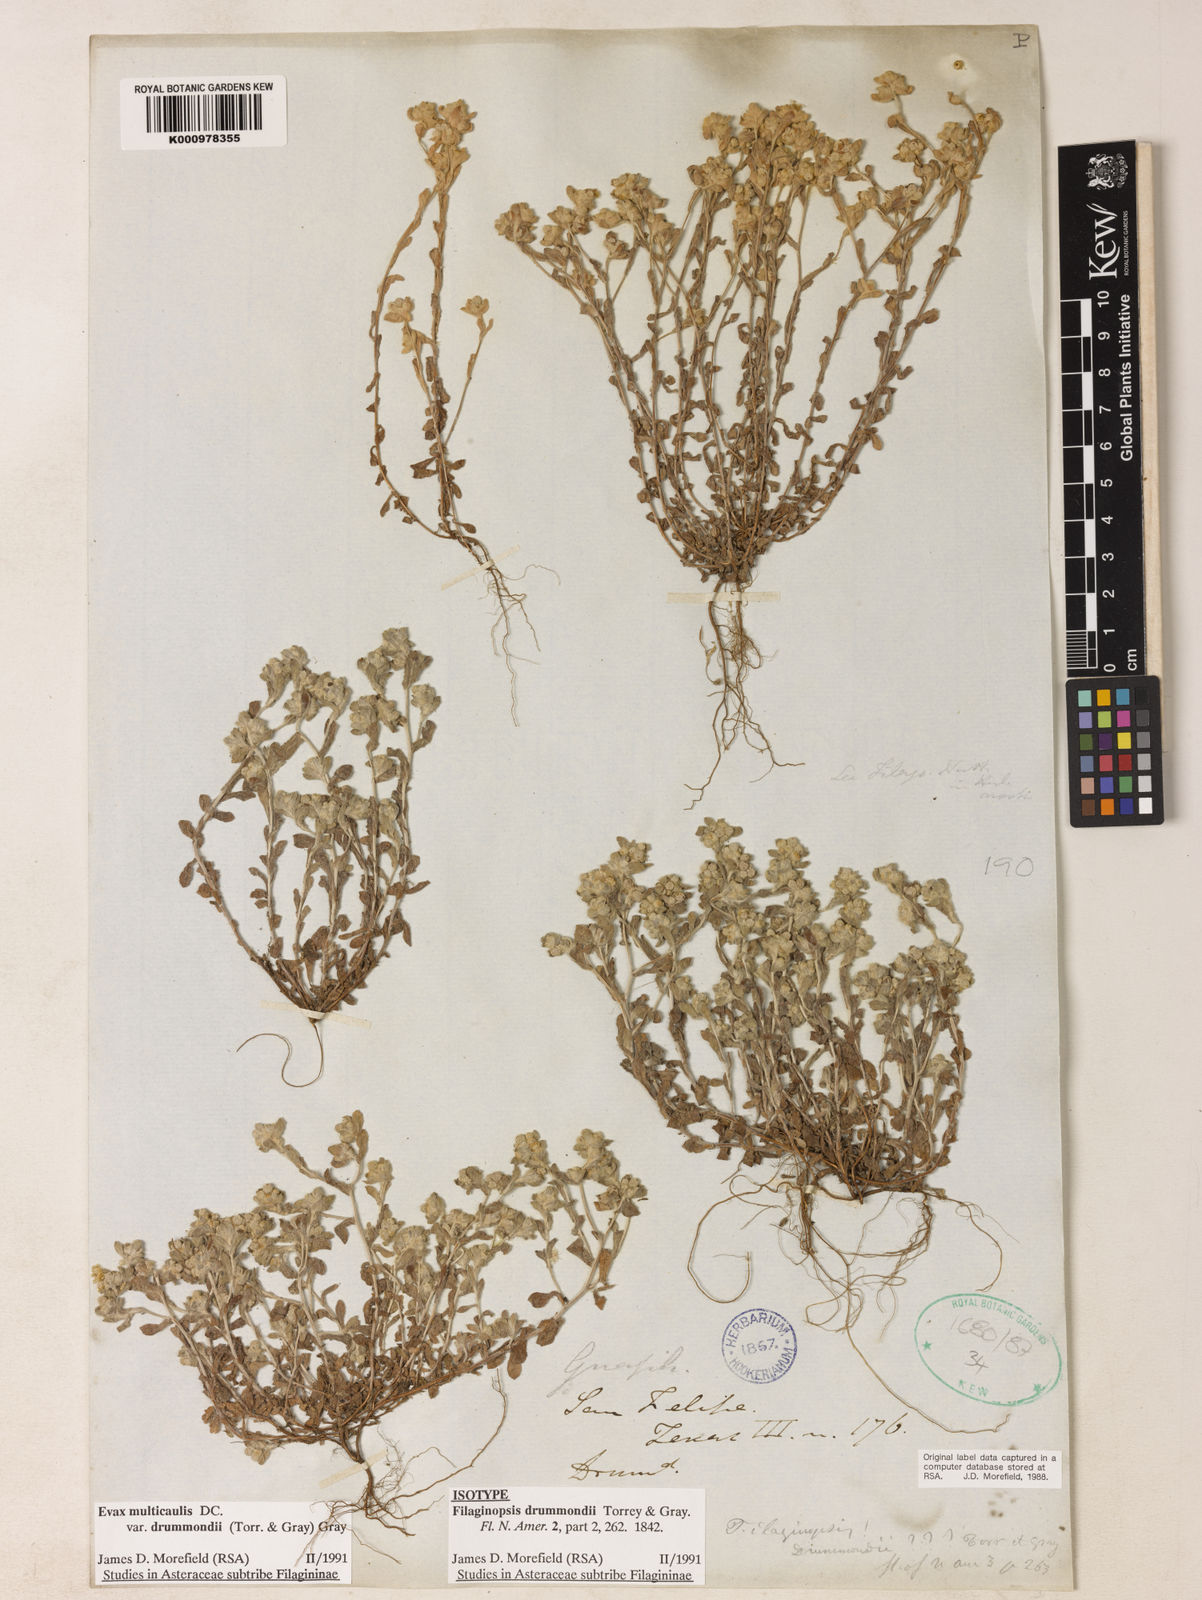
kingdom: Plantae
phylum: Tracheophyta
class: Magnoliopsida
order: Asterales
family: Asteraceae
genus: Diaperia
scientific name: Diaperia verna
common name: Many-stem rabbit-tobacco
